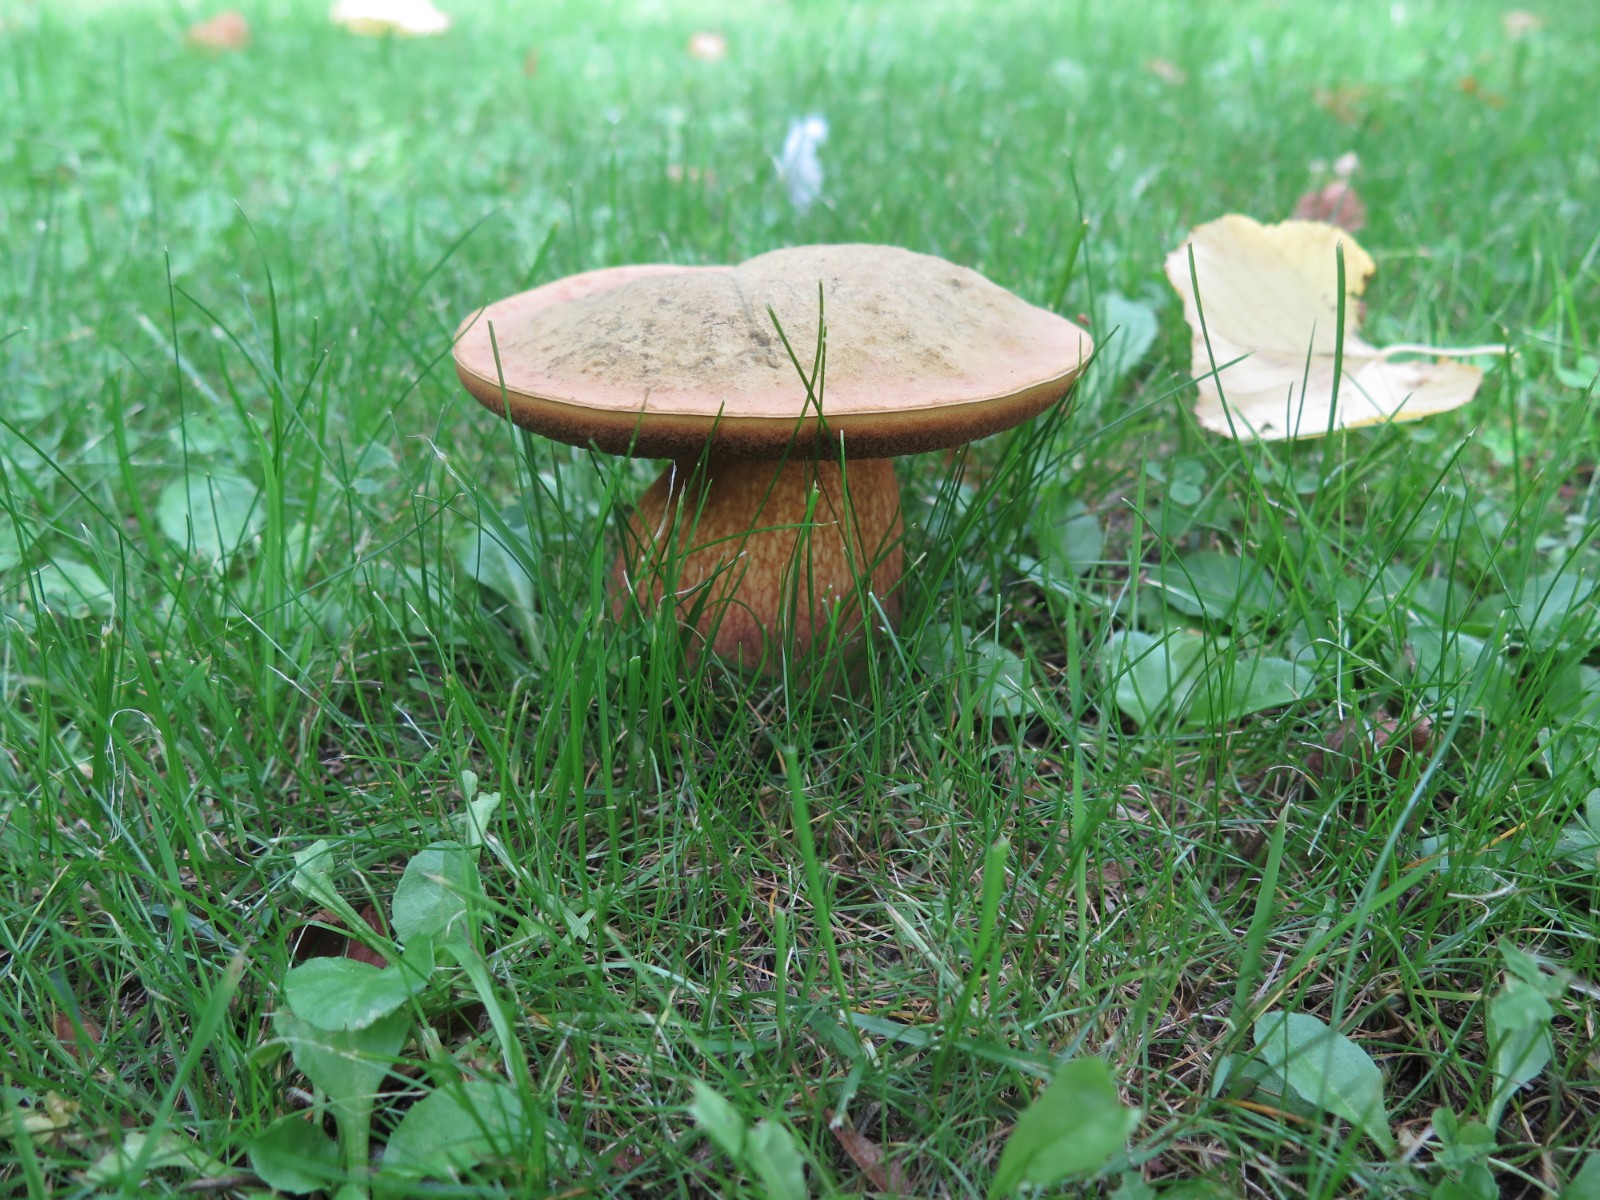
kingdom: Fungi
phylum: Basidiomycota
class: Agaricomycetes
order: Boletales
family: Boletaceae
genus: Suillellus
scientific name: Suillellus luridus
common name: netstokket indigorørhat
